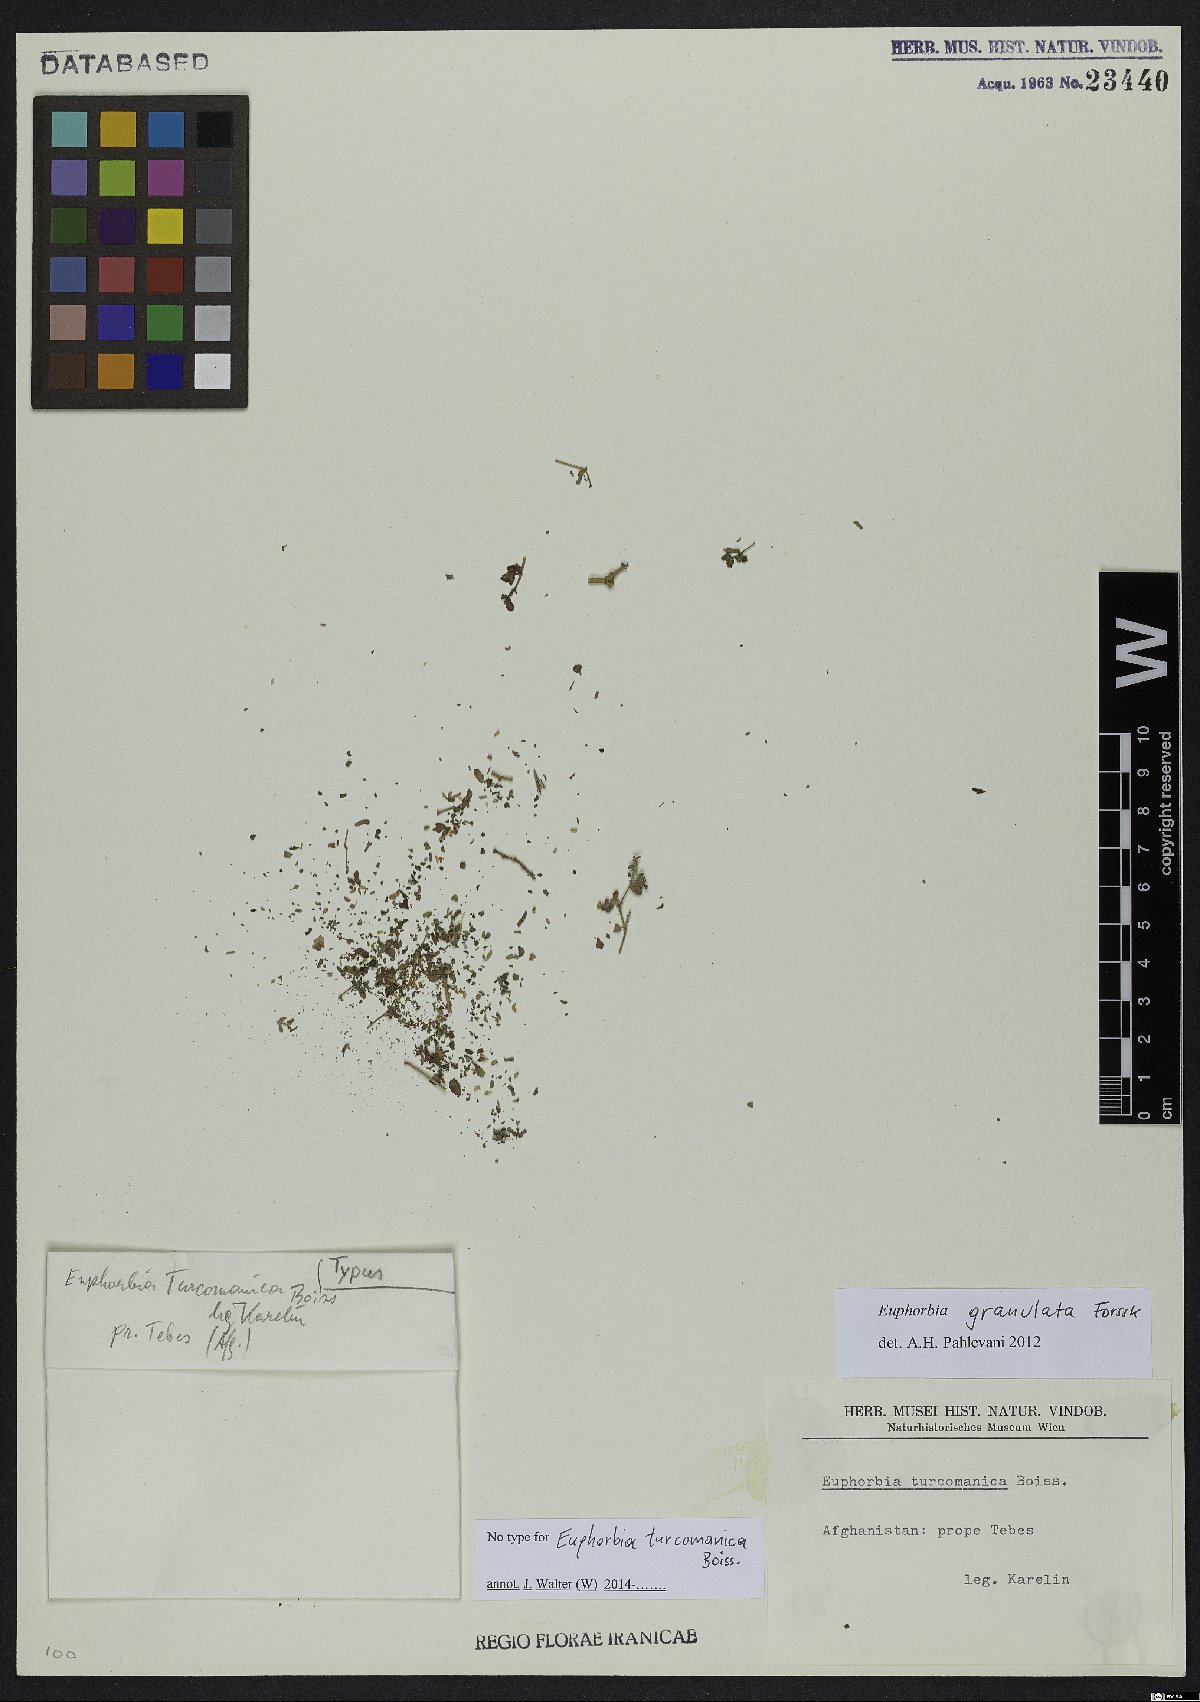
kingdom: Plantae
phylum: Tracheophyta
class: Magnoliopsida
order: Malpighiales
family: Euphorbiaceae
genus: Euphorbia
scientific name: Euphorbia granulata
